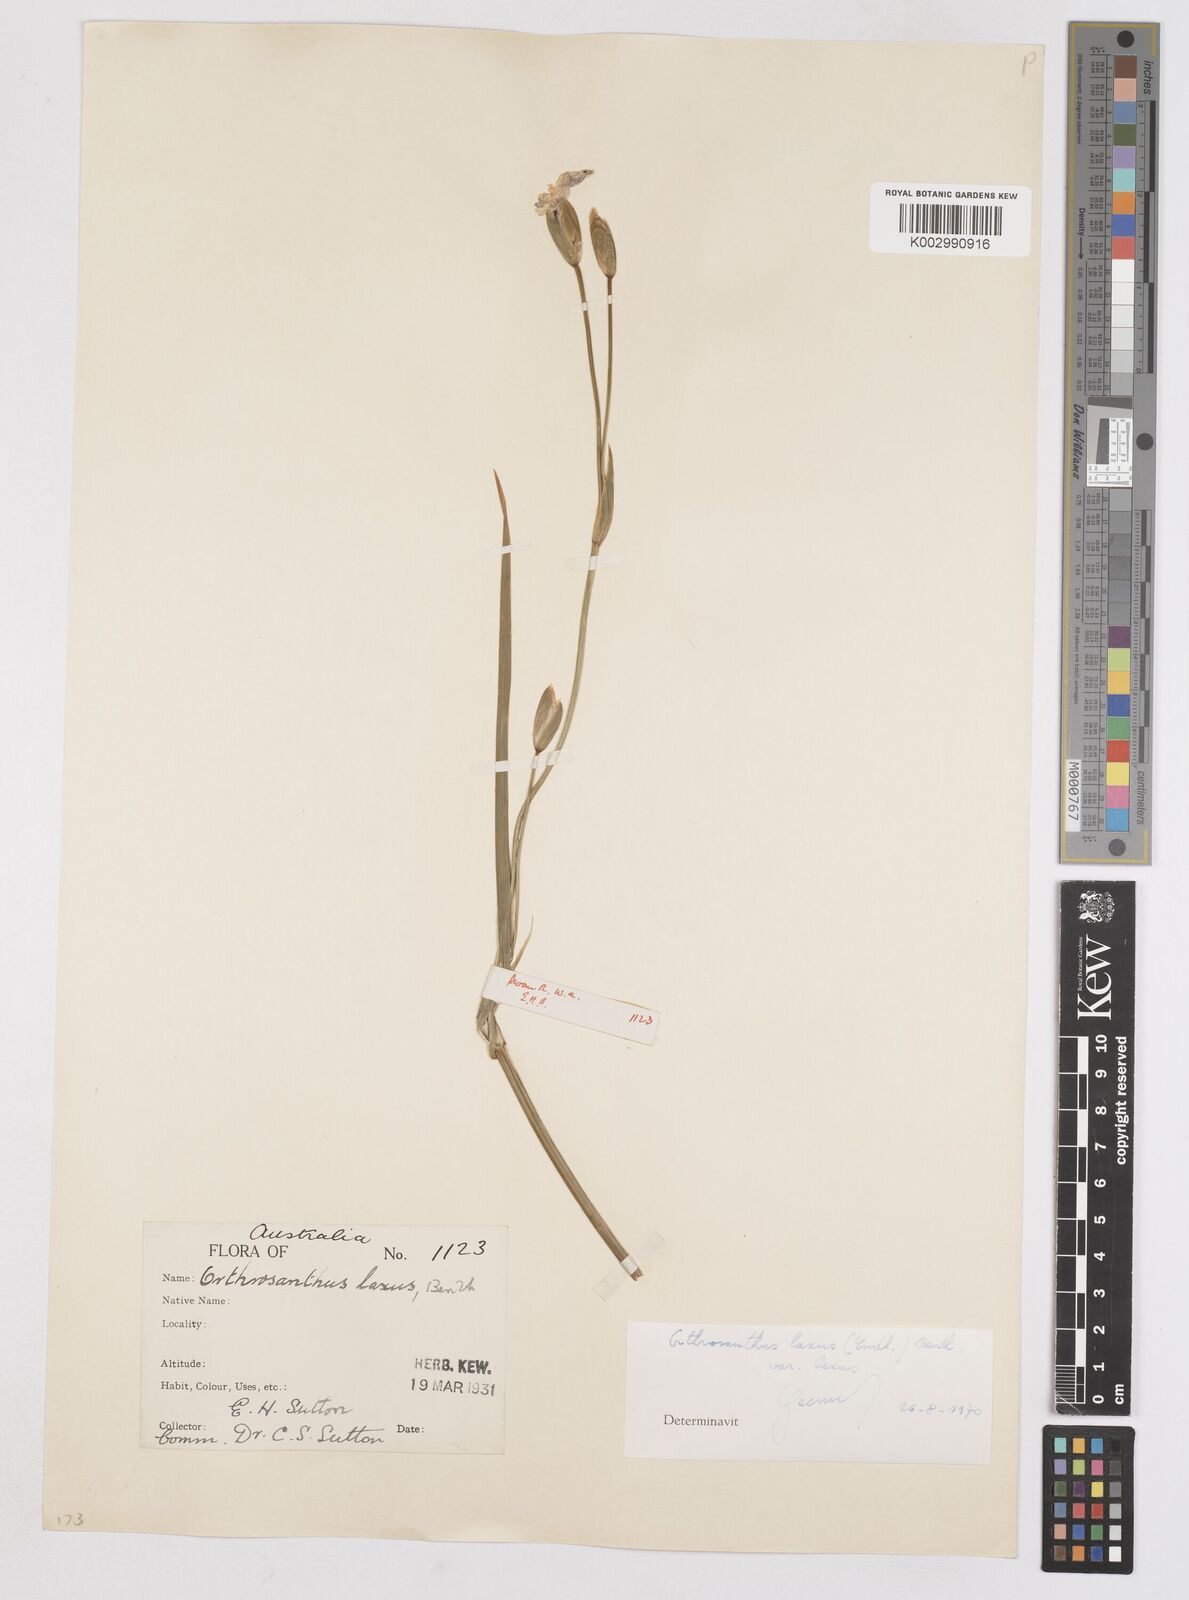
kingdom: Plantae
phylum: Tracheophyta
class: Liliopsida
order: Asparagales
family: Iridaceae
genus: Orthrosanthus
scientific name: Orthrosanthus laxus
